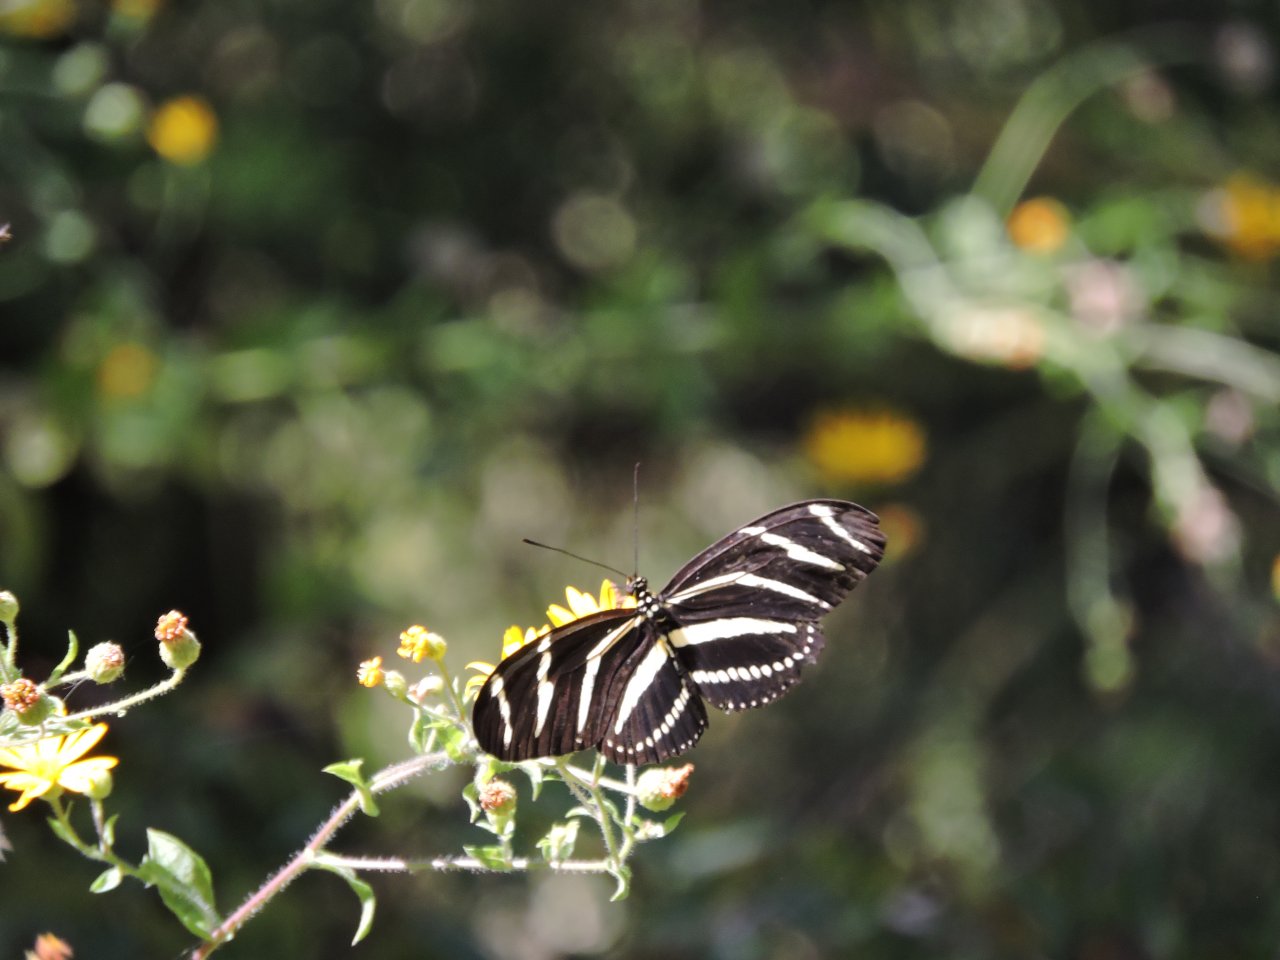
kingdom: Animalia
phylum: Arthropoda
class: Insecta
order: Lepidoptera
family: Nymphalidae
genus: Heliconius
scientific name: Heliconius charithonia
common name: Zebra Longwing
